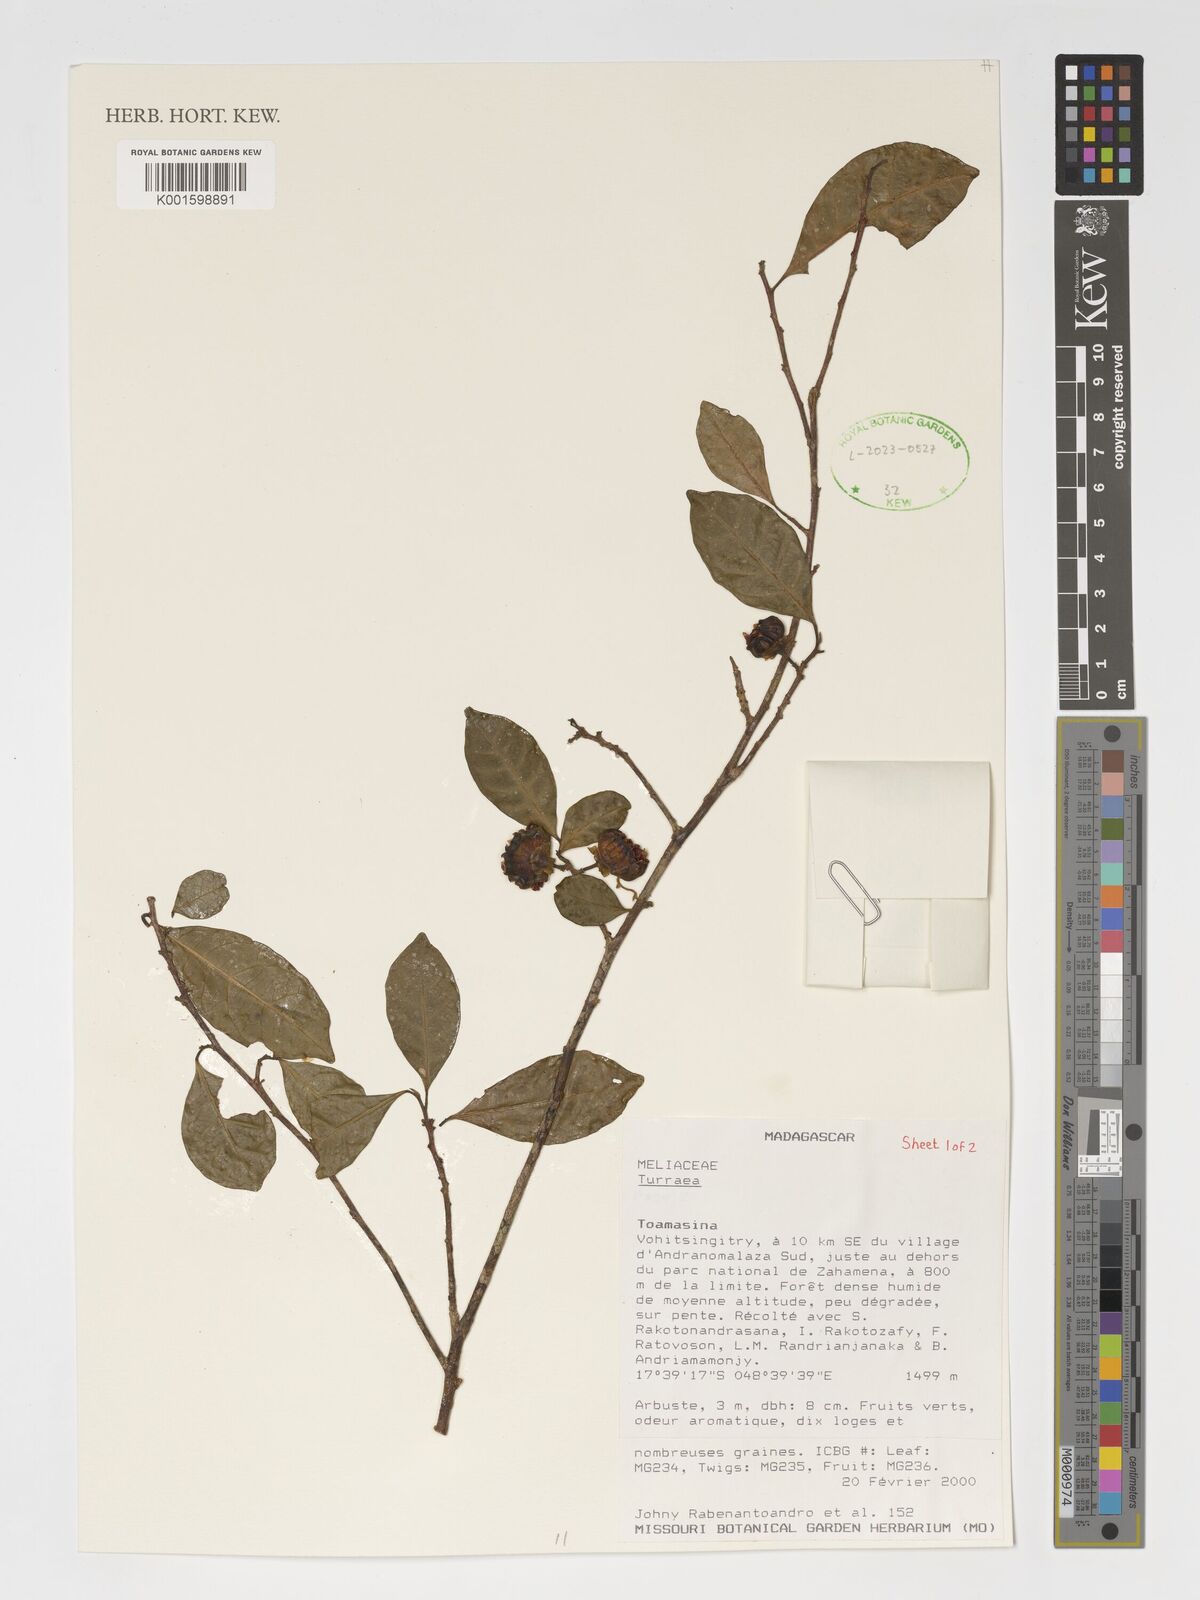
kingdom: Plantae
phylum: Tracheophyta
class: Magnoliopsida
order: Sapindales
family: Meliaceae
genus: Turraea
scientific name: Turraea
